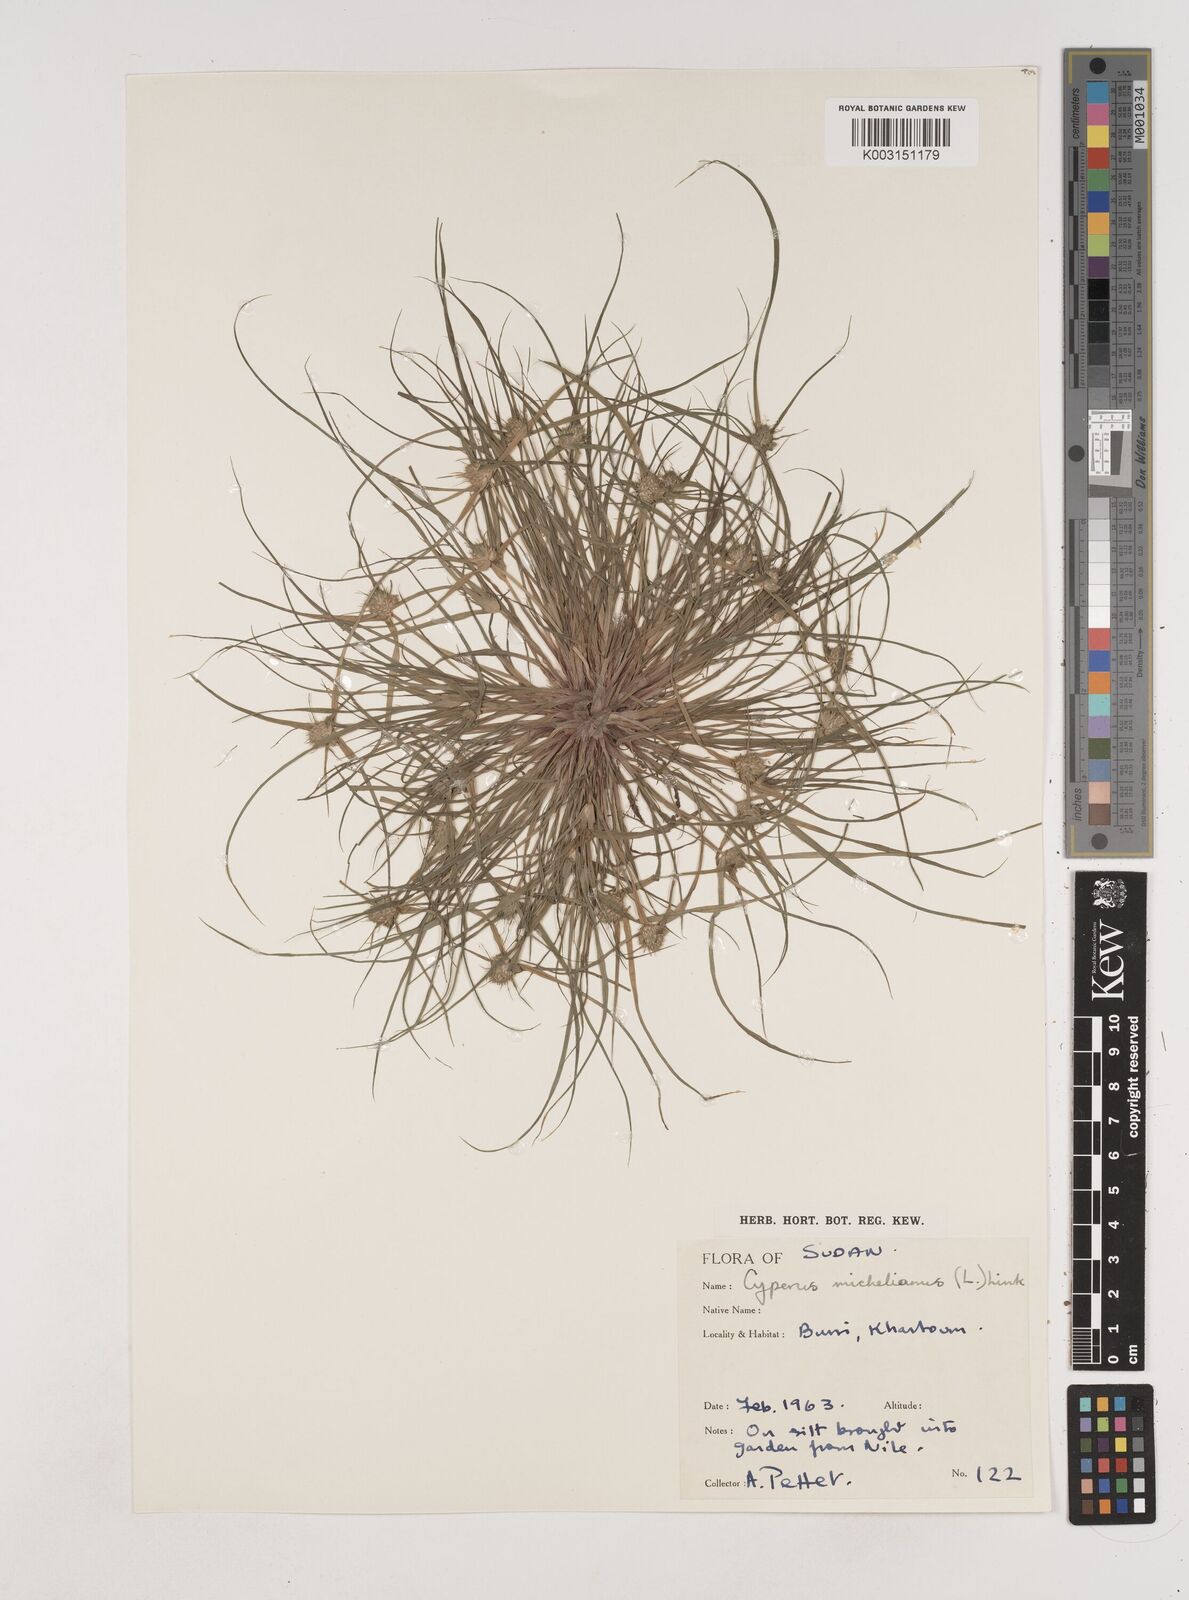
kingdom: Plantae
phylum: Tracheophyta
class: Liliopsida
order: Poales
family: Cyperaceae
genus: Cyperus
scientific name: Cyperus michelianus
